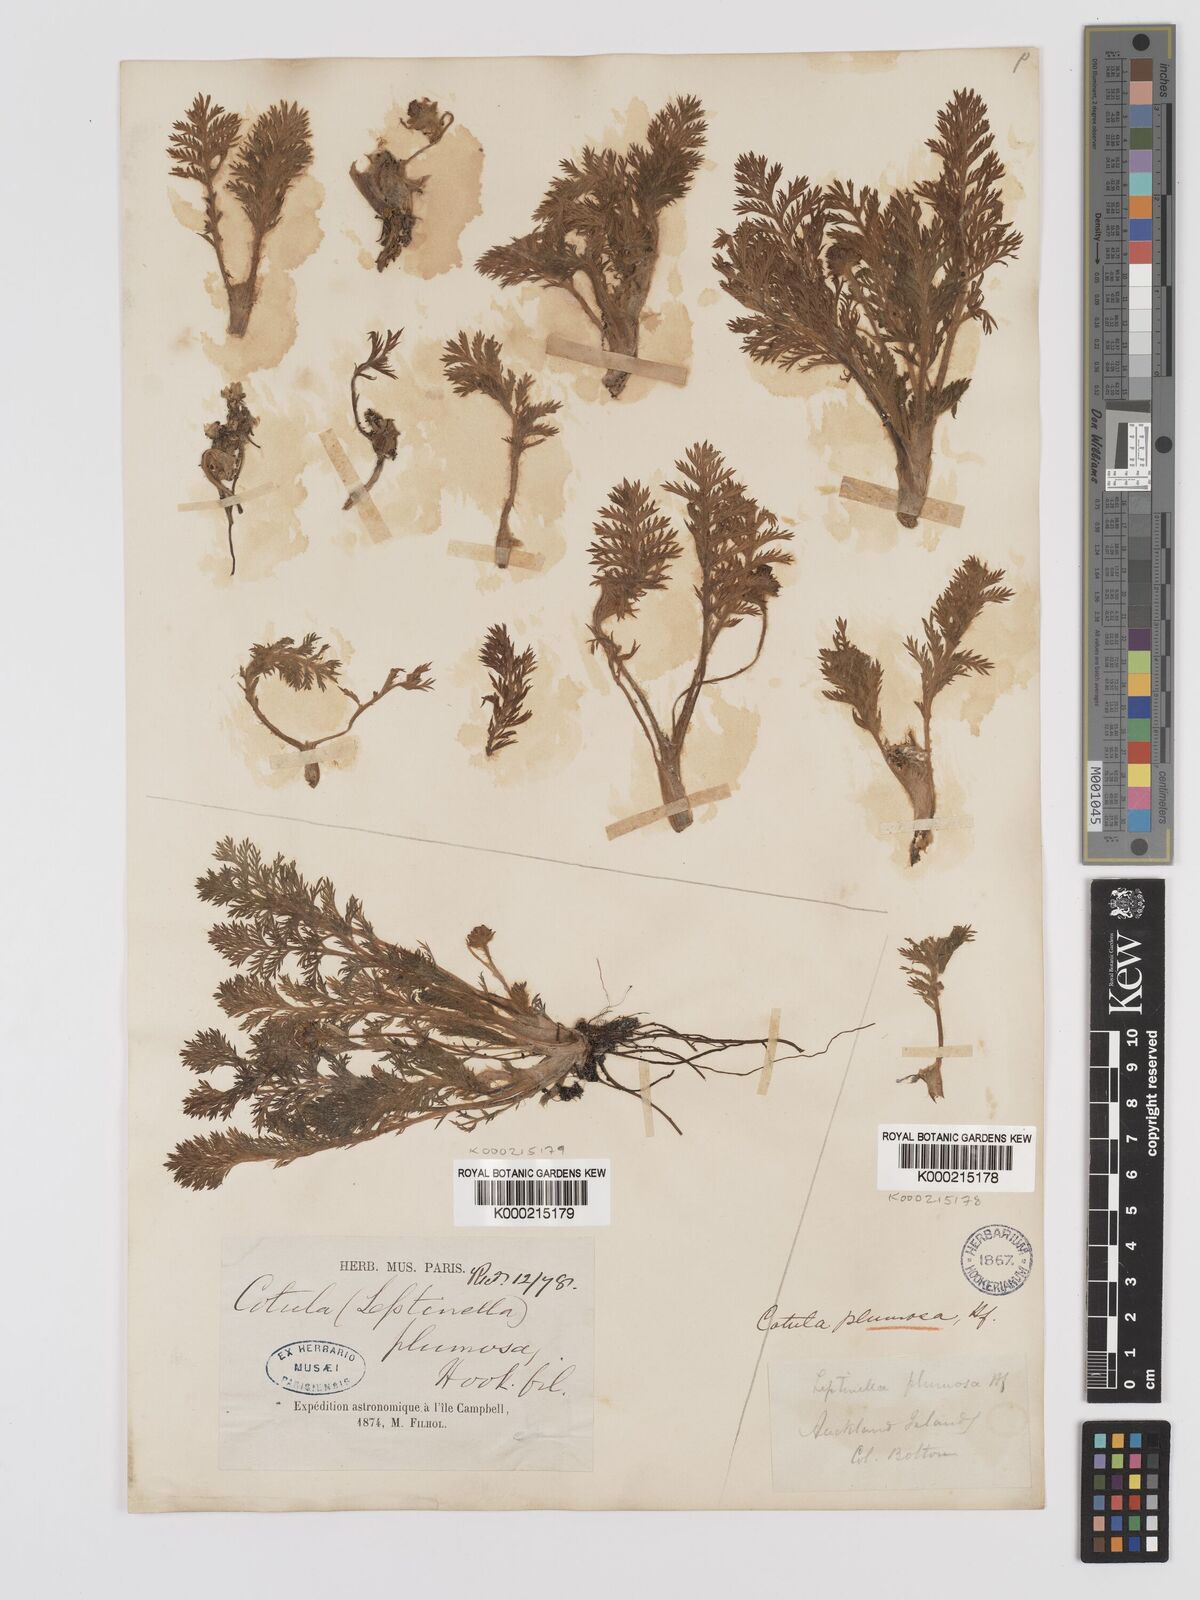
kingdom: Plantae
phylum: Tracheophyta
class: Magnoliopsida
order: Asterales
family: Asteraceae
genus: Leptinella
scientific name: Leptinella
